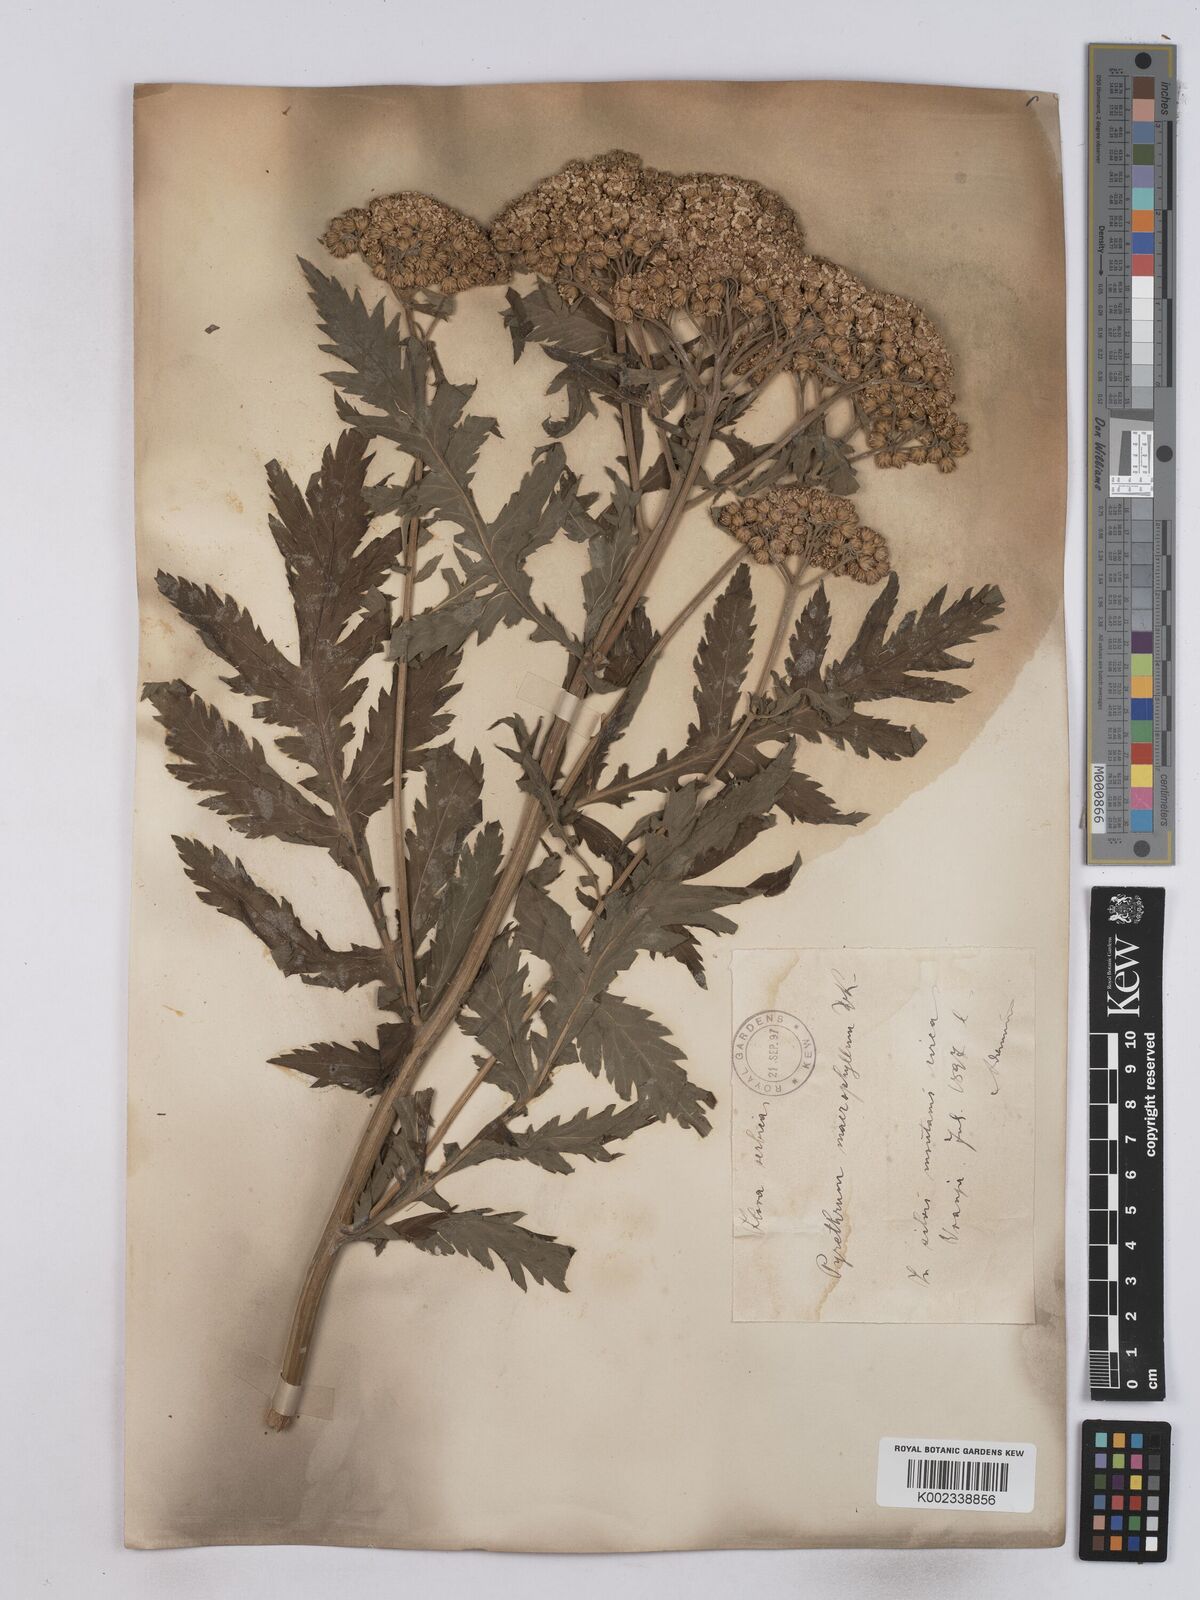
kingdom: Plantae
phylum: Tracheophyta
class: Magnoliopsida
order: Asterales
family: Asteraceae
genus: Tanacetum
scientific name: Tanacetum macrophyllum
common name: Rayed tansy
